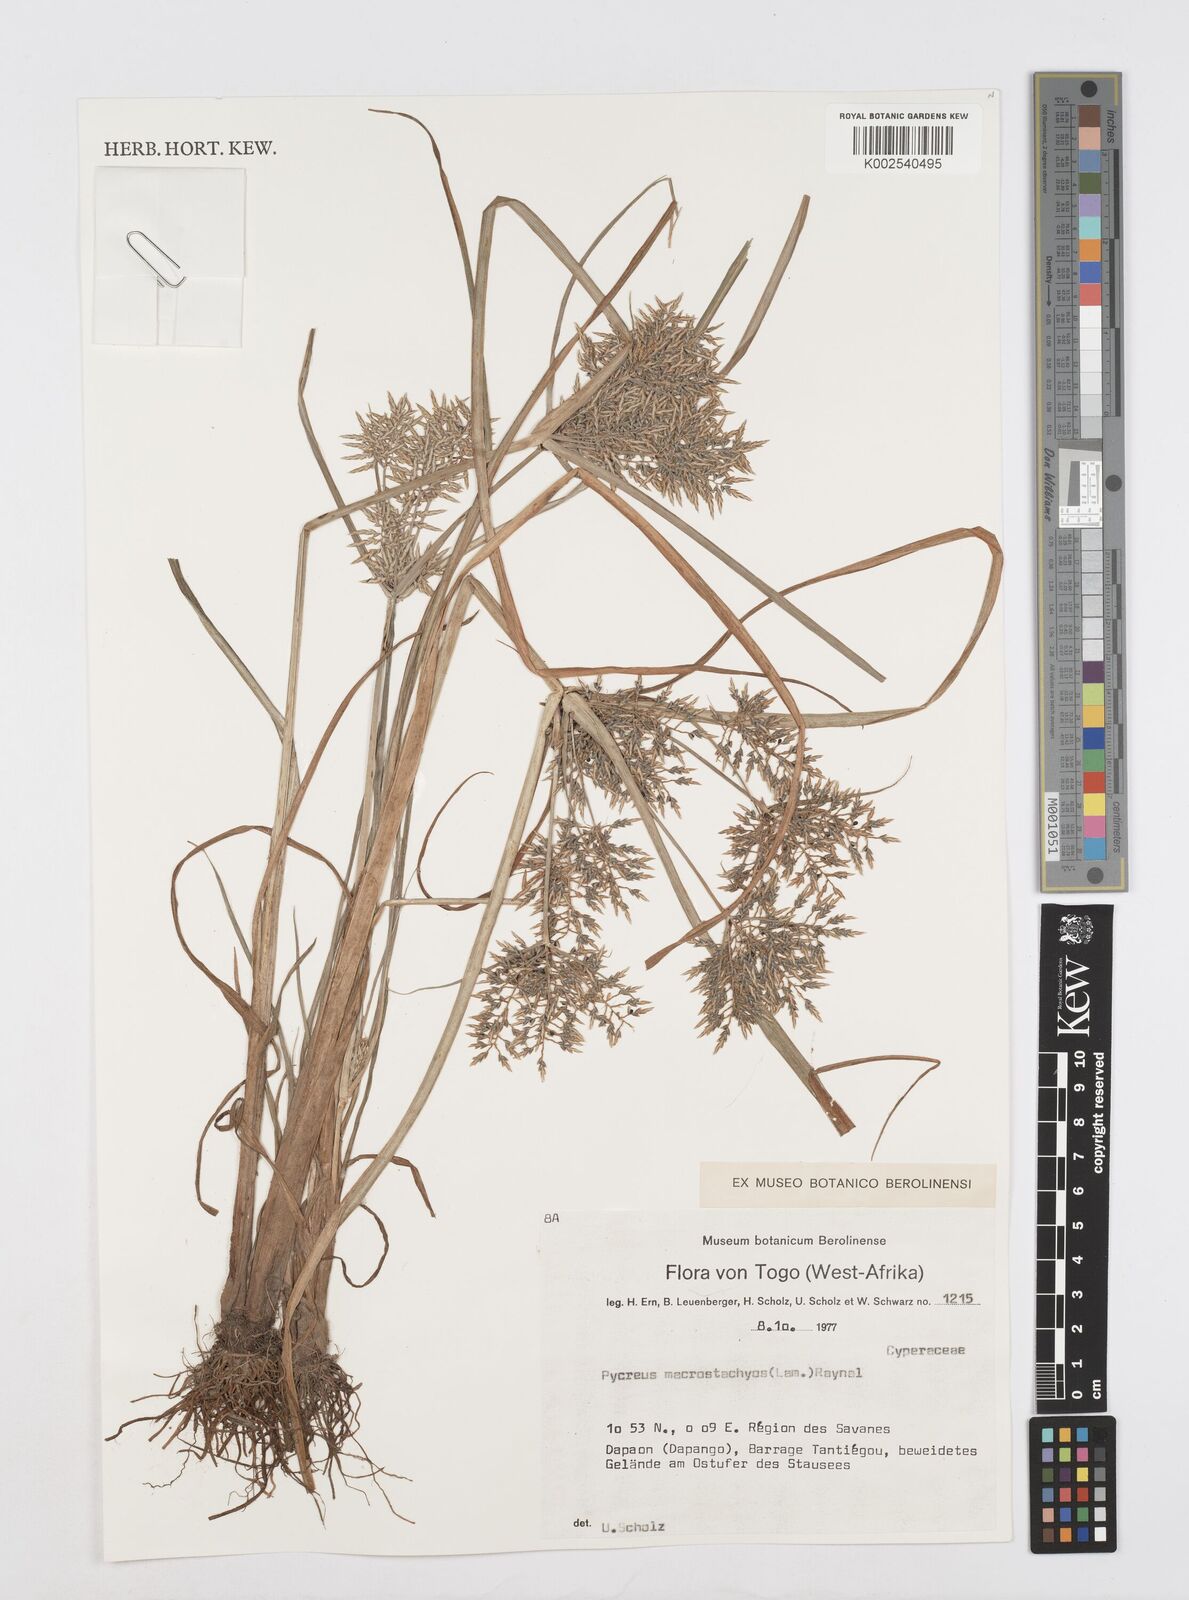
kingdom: Plantae
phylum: Tracheophyta
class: Liliopsida
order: Poales
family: Cyperaceae
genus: Cyperus
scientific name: Cyperus macrostachyos
